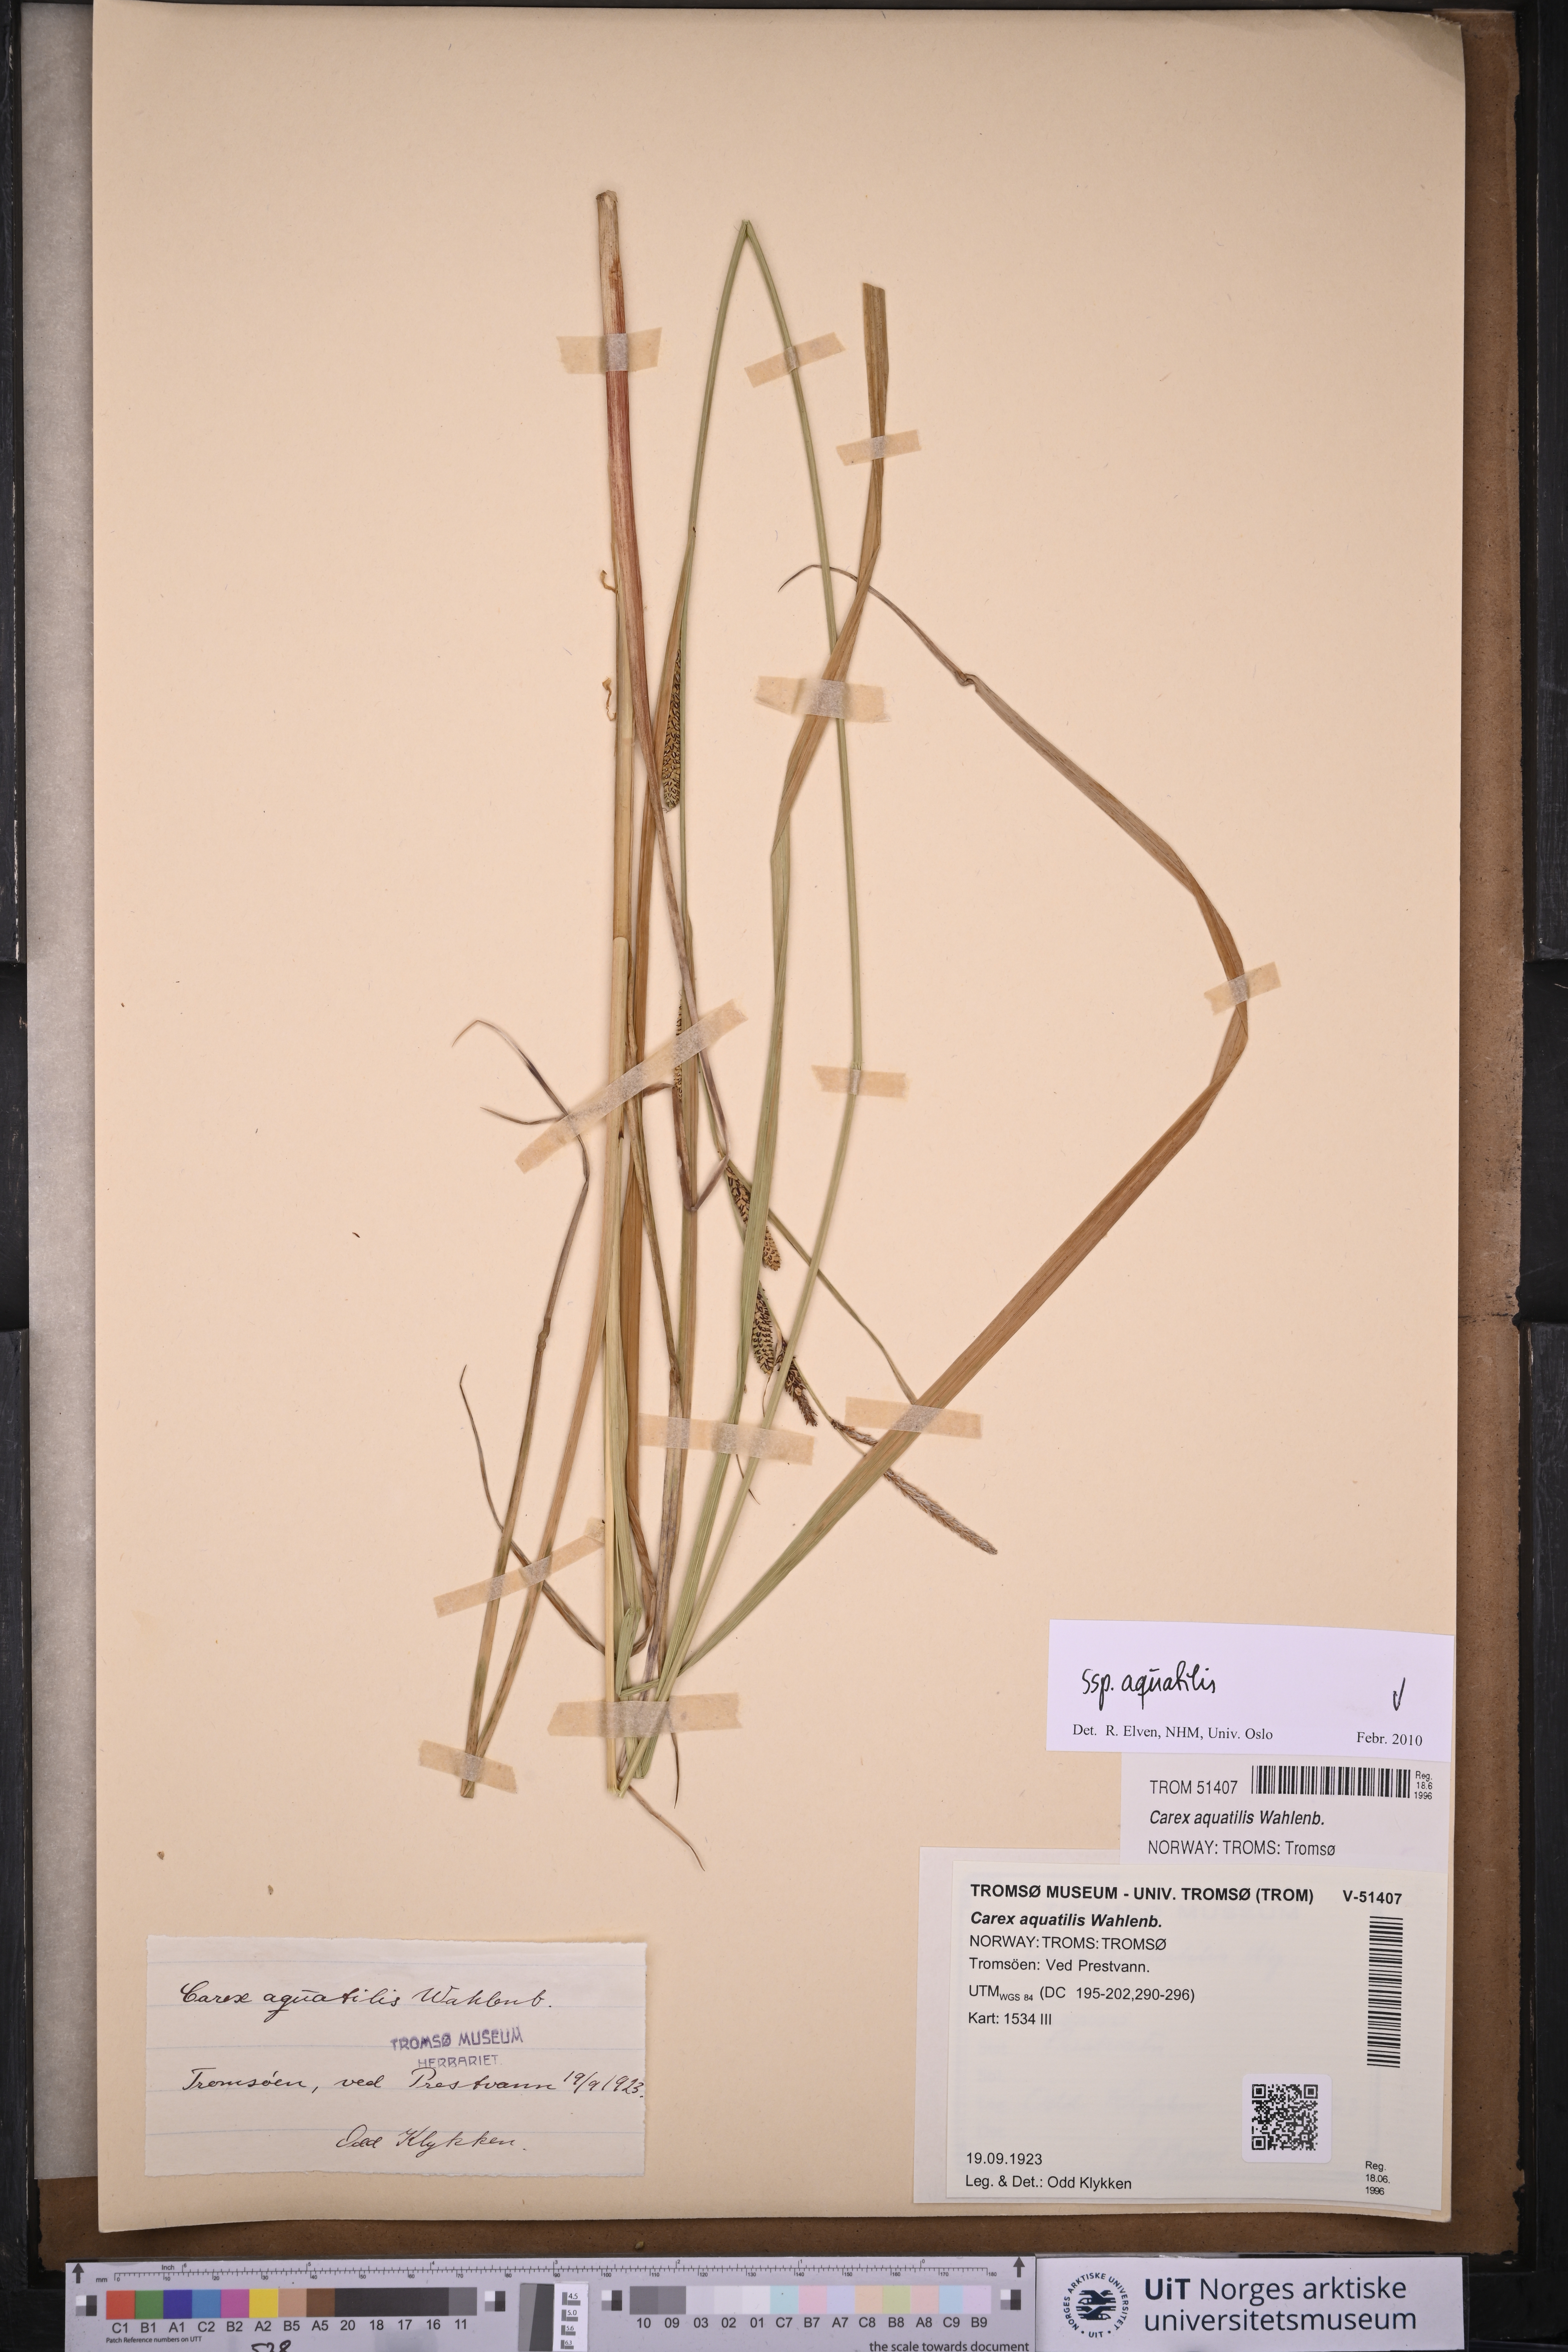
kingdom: Plantae
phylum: Tracheophyta
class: Liliopsida
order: Poales
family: Cyperaceae
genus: Carex
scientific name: Carex aquatilis
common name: Water sedge
